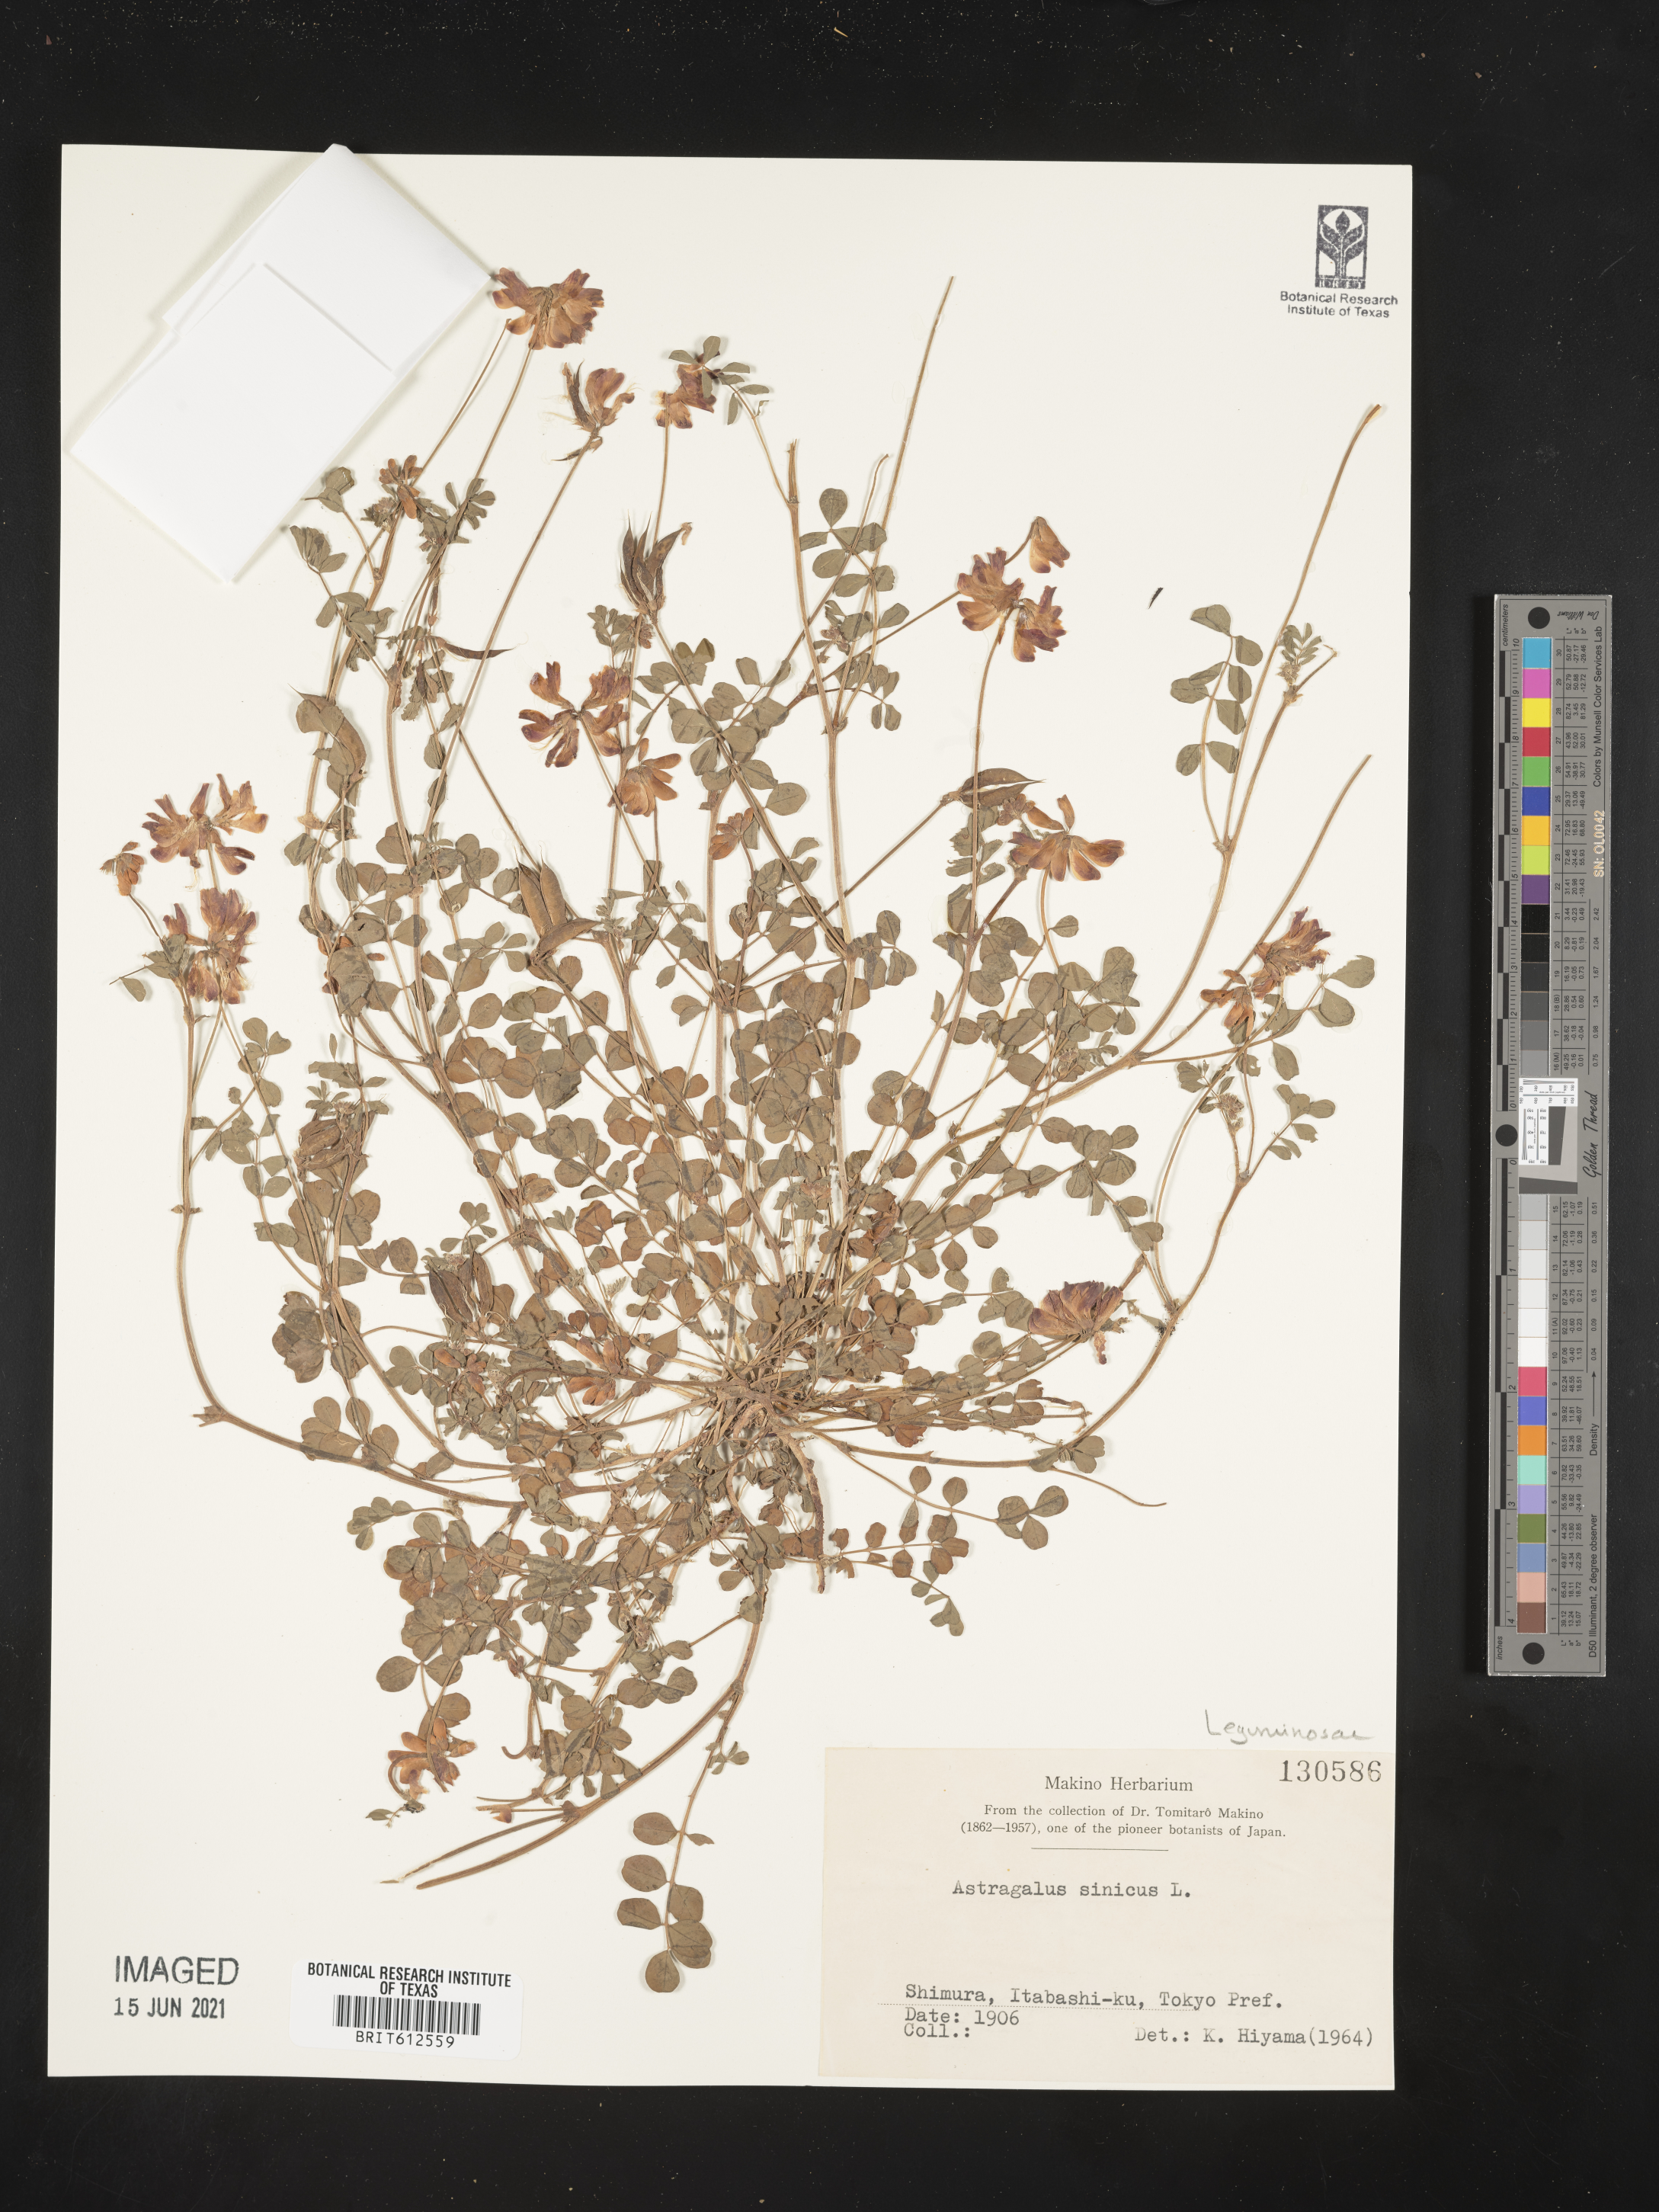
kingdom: Plantae
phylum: Tracheophyta
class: Magnoliopsida
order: Fabales
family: Fabaceae
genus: Astragalus
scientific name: Astragalus sinicus
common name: Chinese milk-vetch
